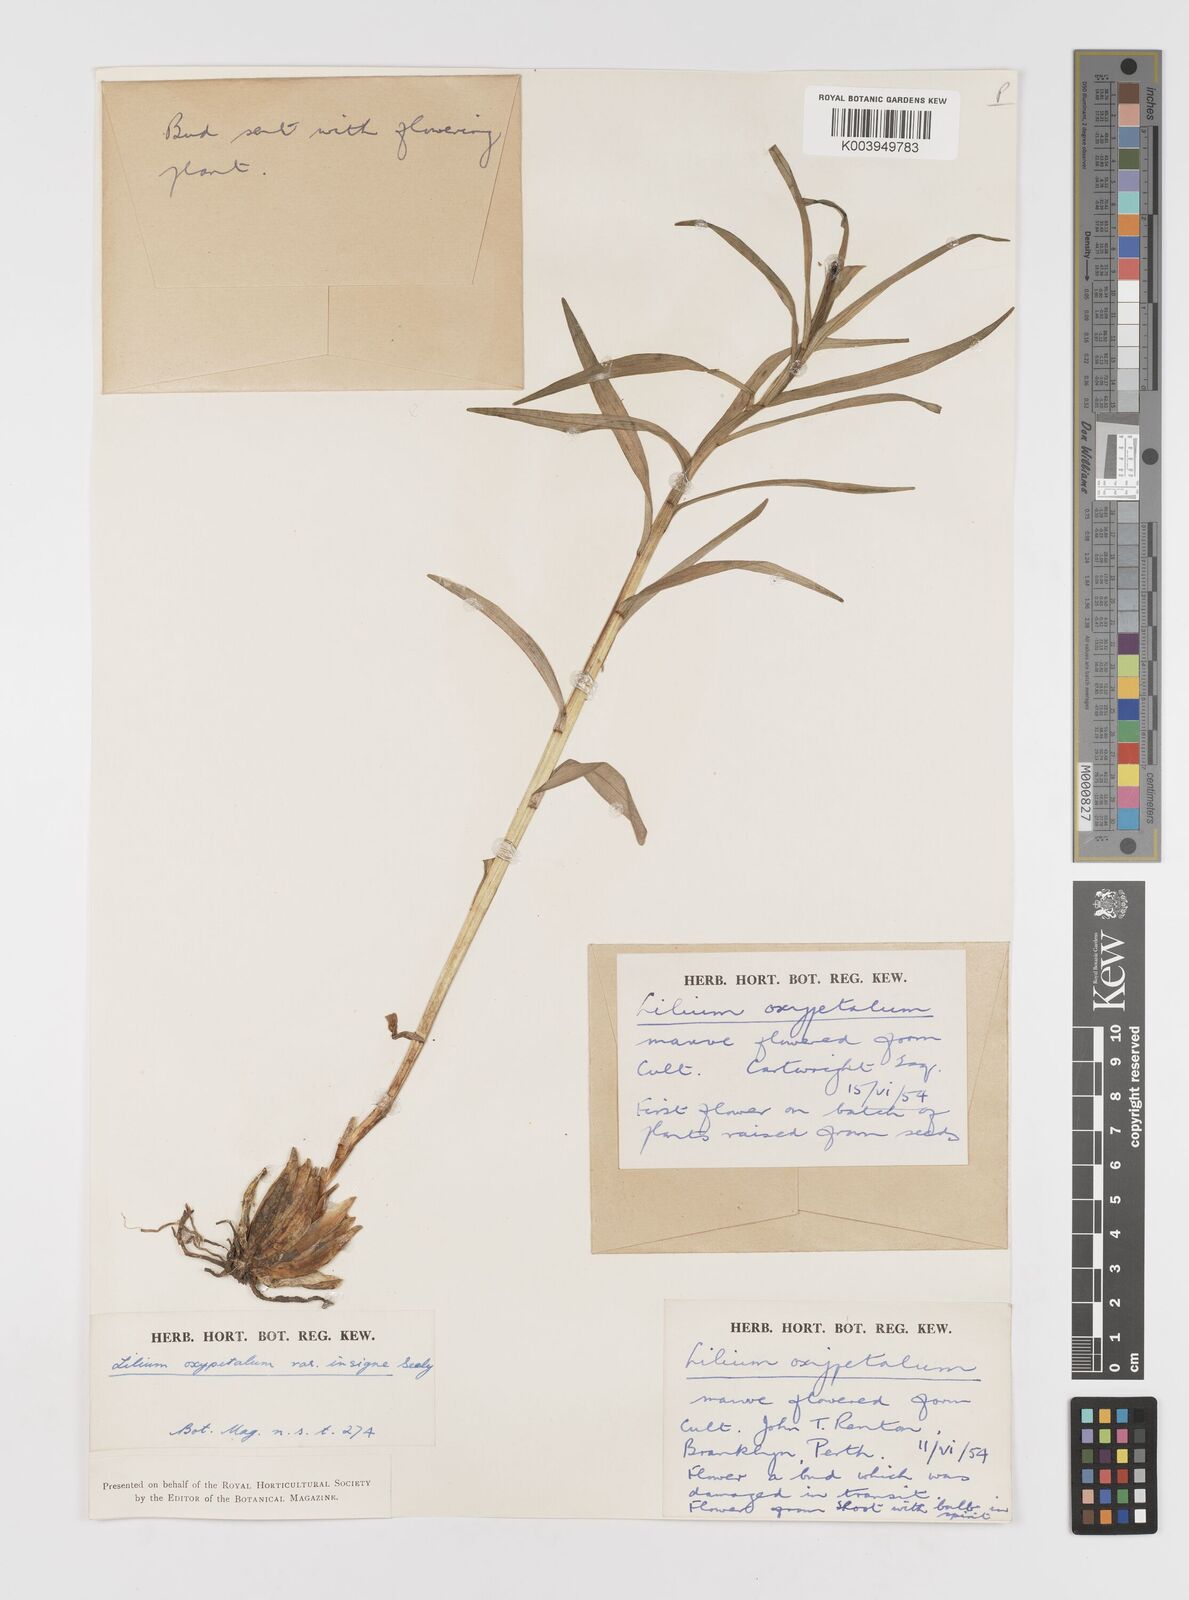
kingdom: Plantae
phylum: Tracheophyta
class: Liliopsida
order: Liliales
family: Liliaceae
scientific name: Liliaceae
